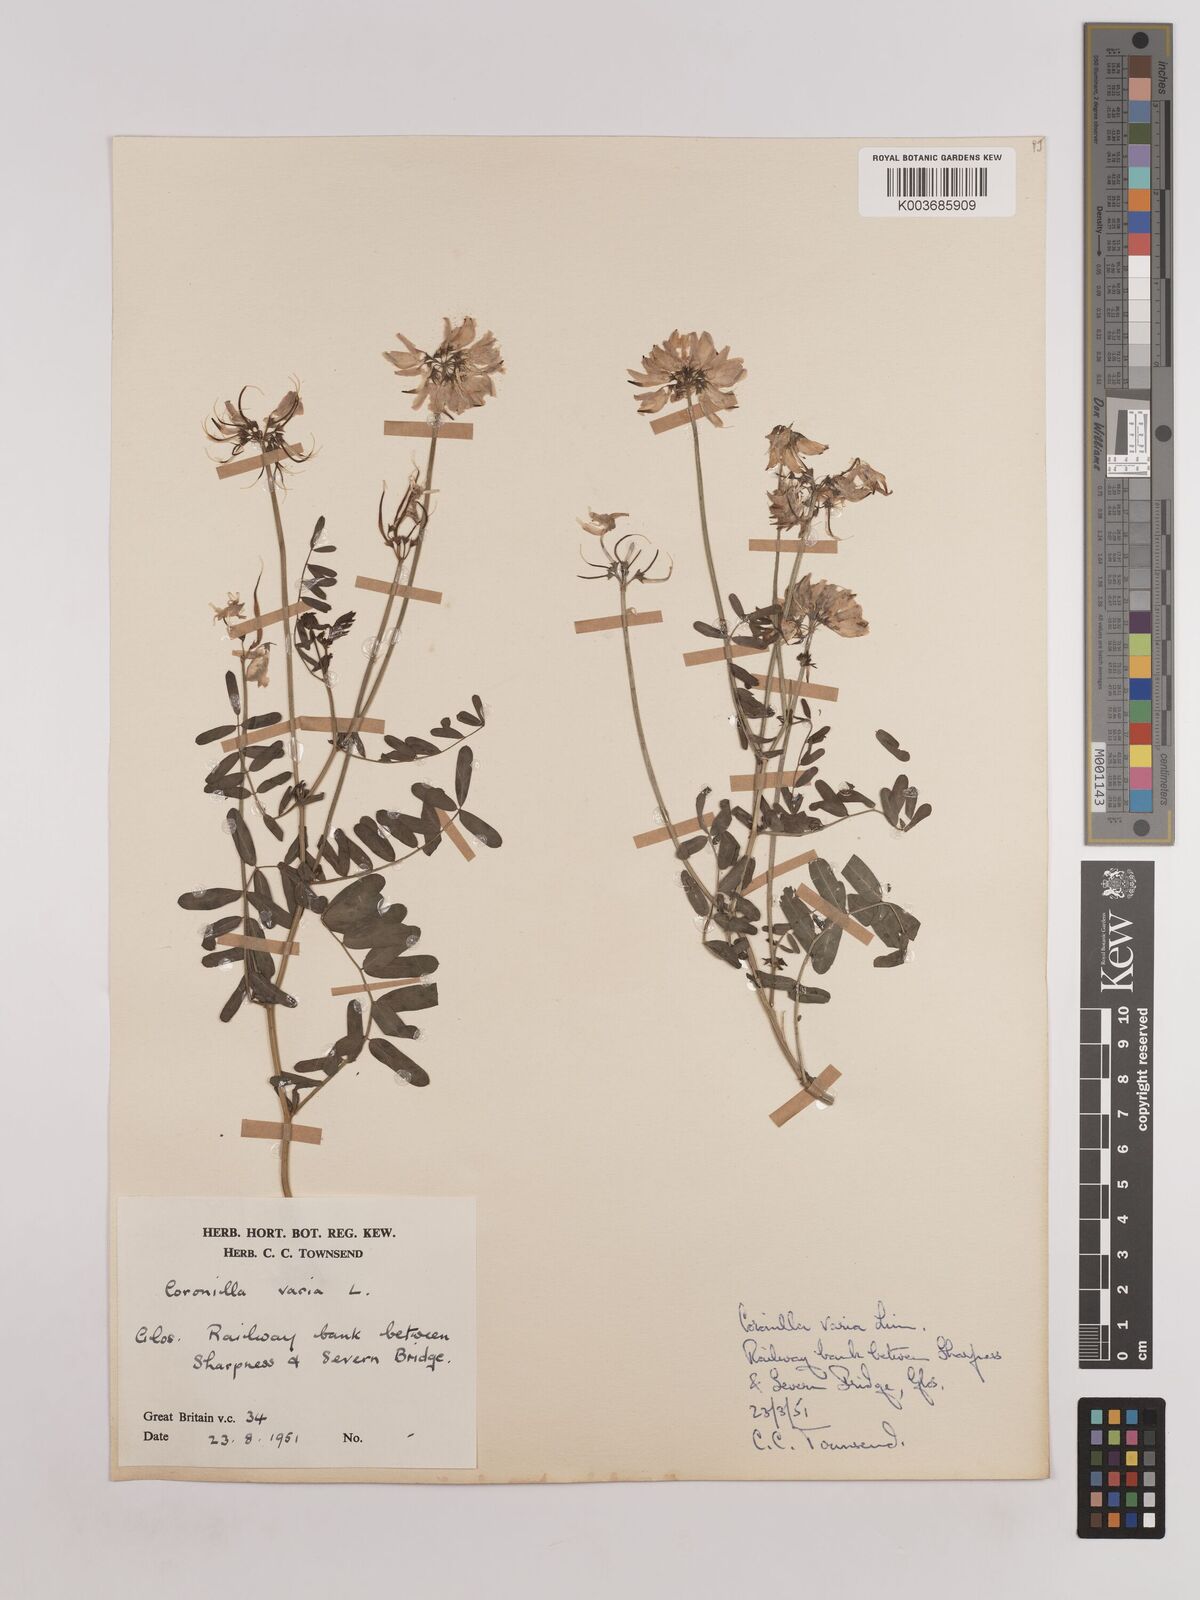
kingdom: Plantae
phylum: Tracheophyta
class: Magnoliopsida
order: Fabales
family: Fabaceae
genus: Coronilla
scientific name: Coronilla varia
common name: Crownvetch
